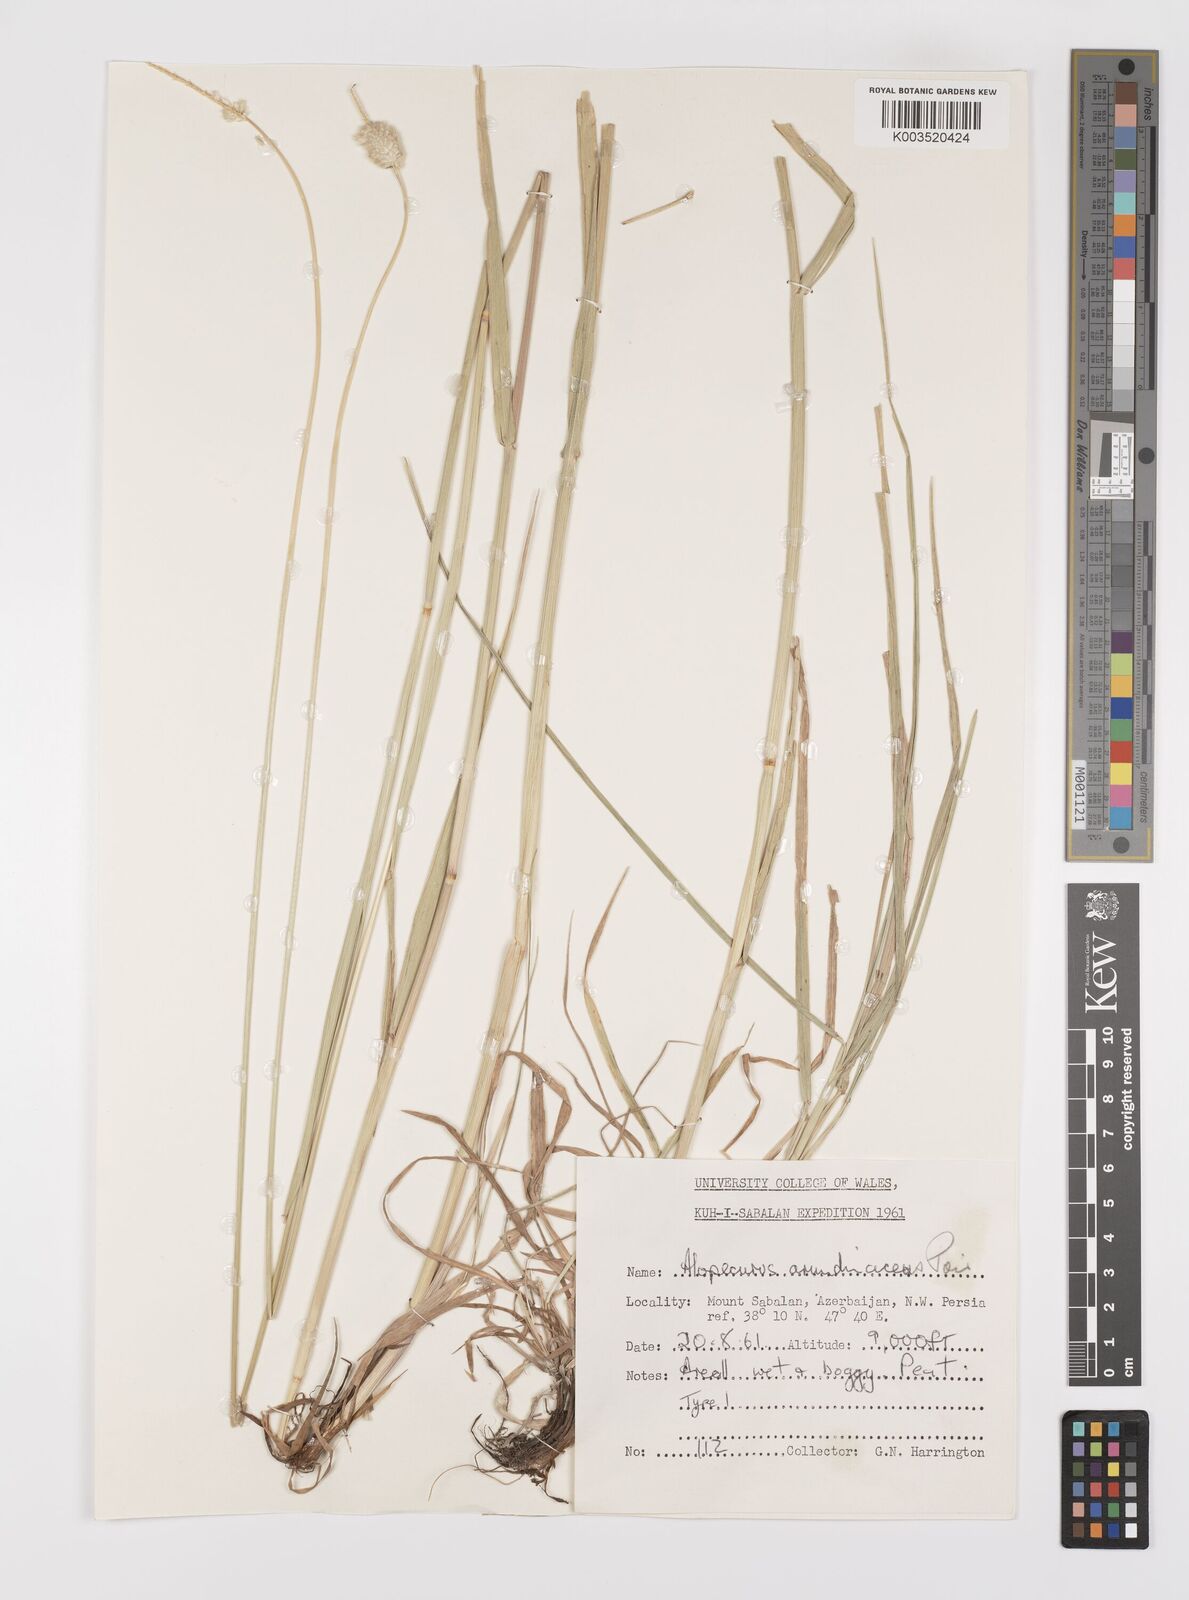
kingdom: Plantae
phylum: Tracheophyta
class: Liliopsida
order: Poales
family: Poaceae
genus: Alopecurus
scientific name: Alopecurus arundinaceus
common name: Creeping meadow foxtail
